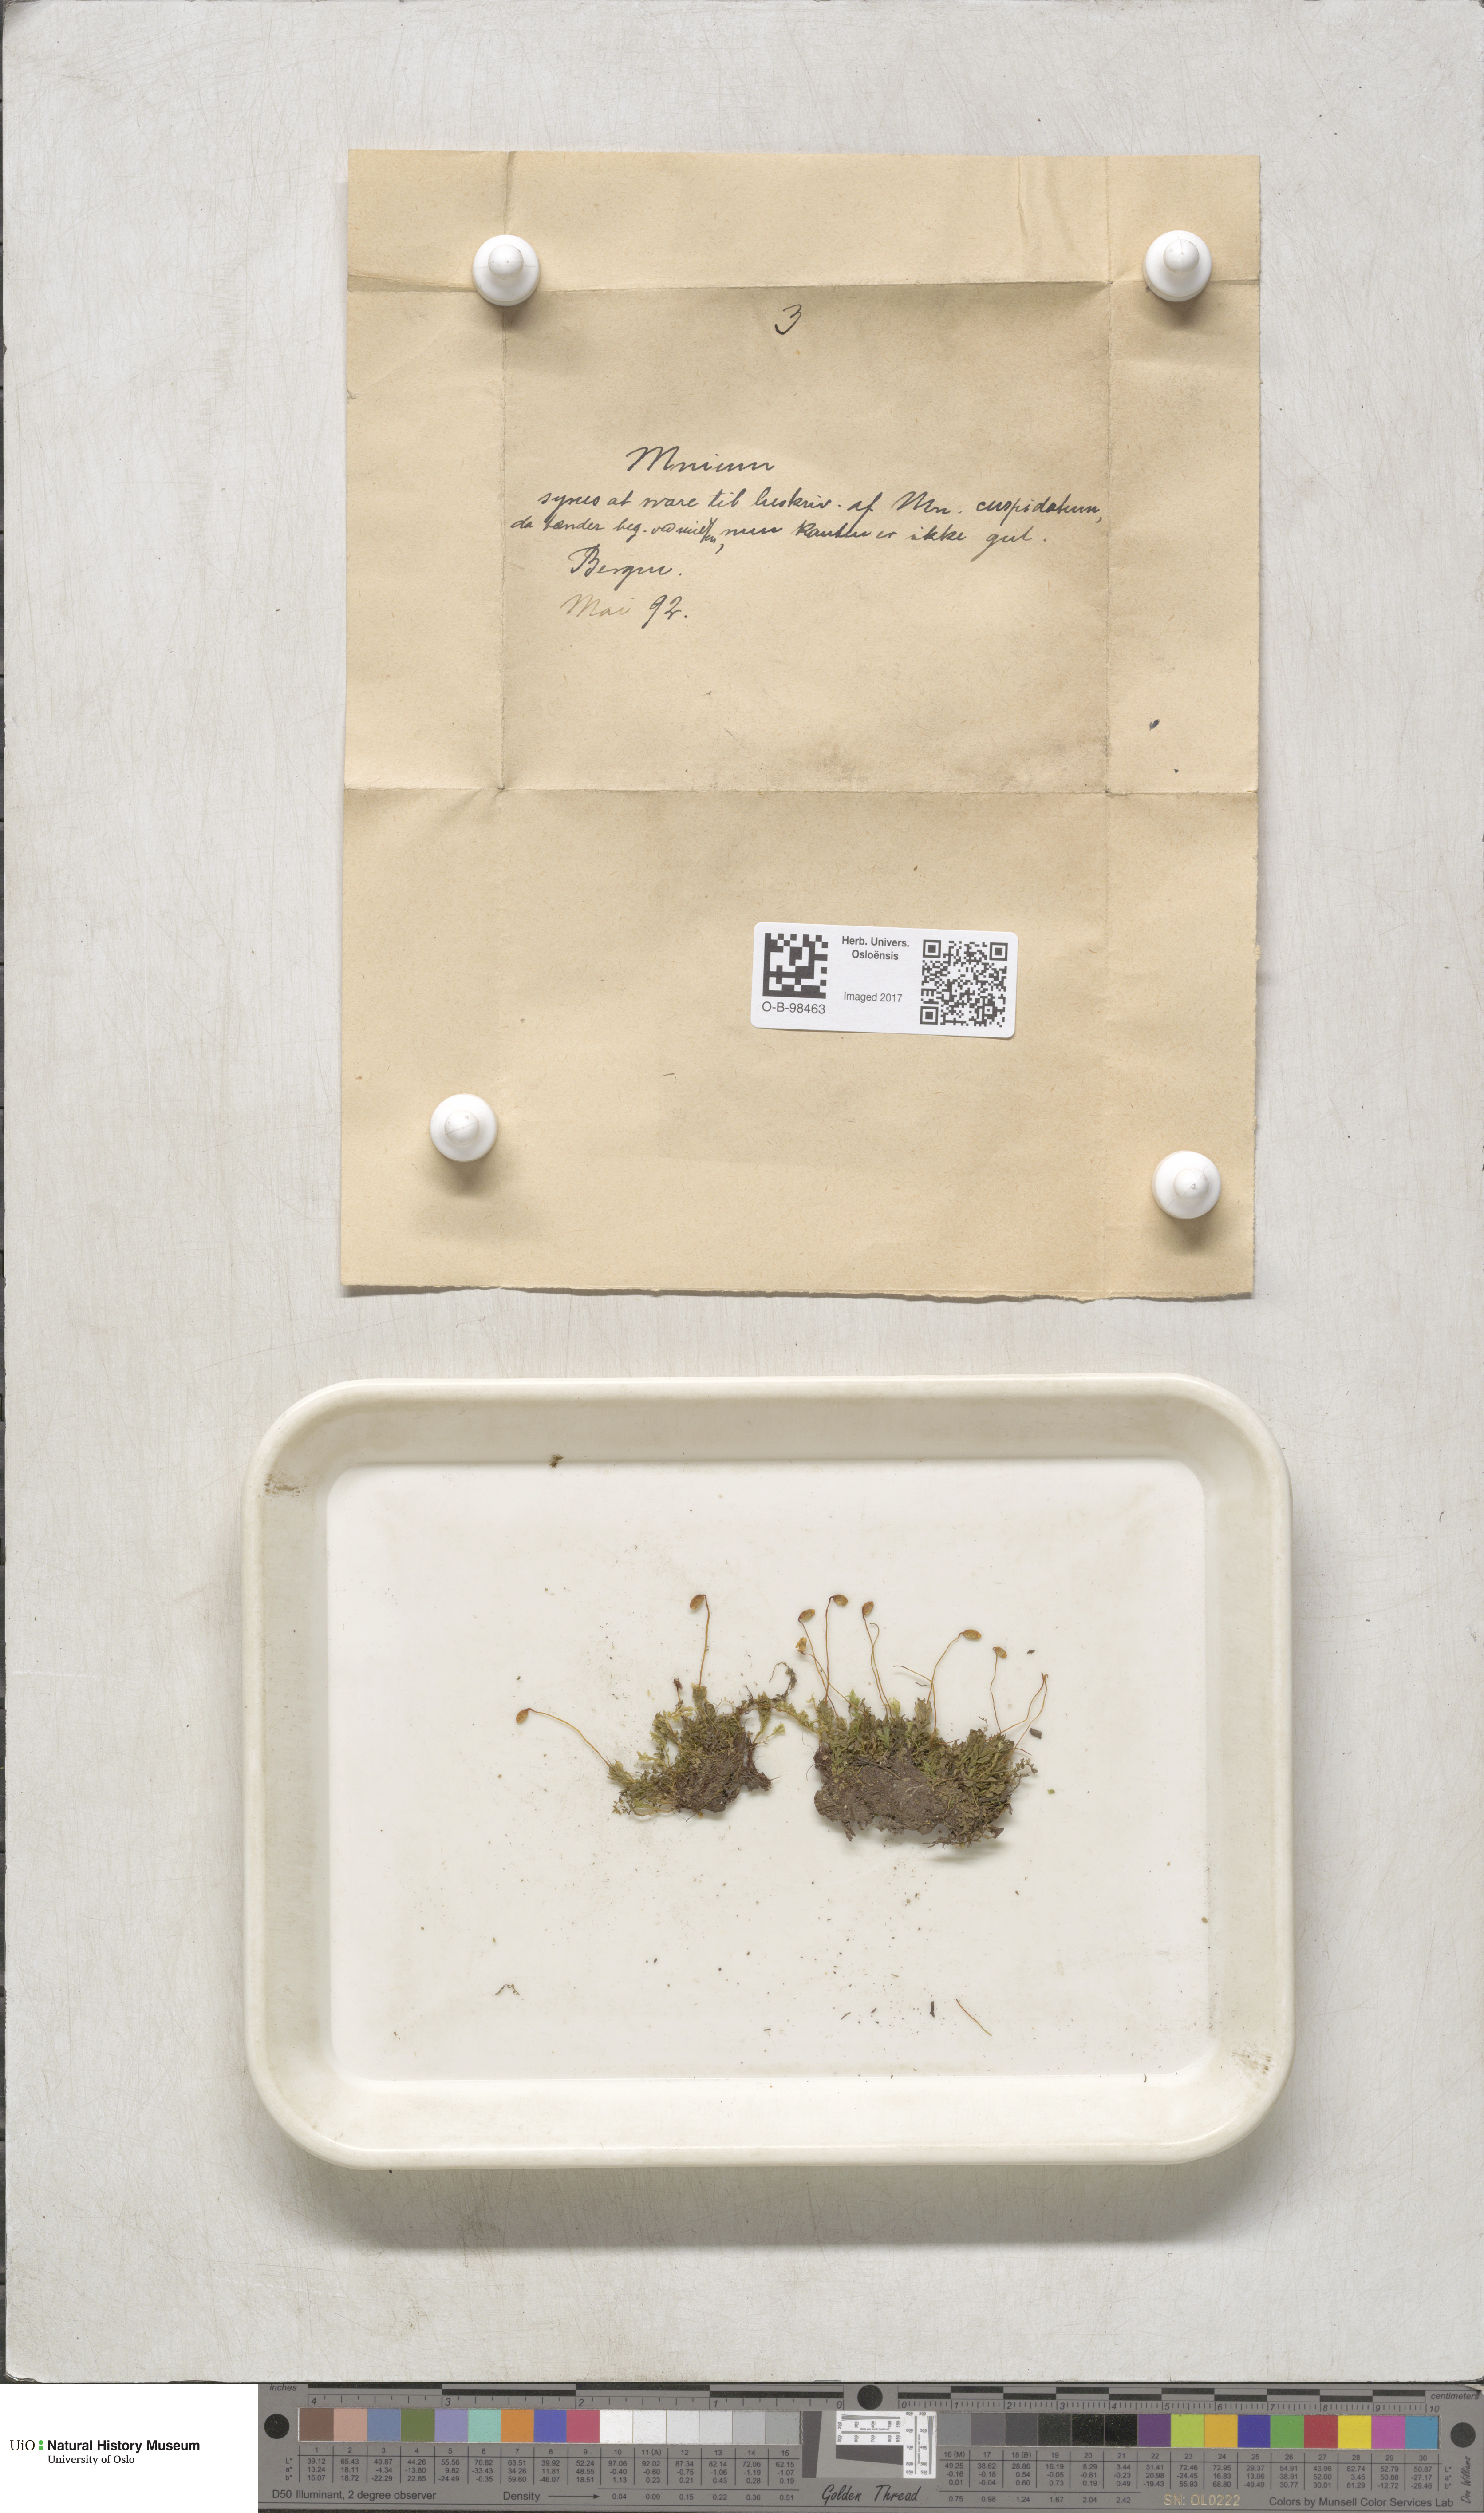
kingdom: Plantae
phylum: Bryophyta
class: Bryopsida
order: Bryales
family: Mniaceae
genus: Plagiomnium
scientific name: Plagiomnium cuspidatum
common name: Woodsy leafy moss
